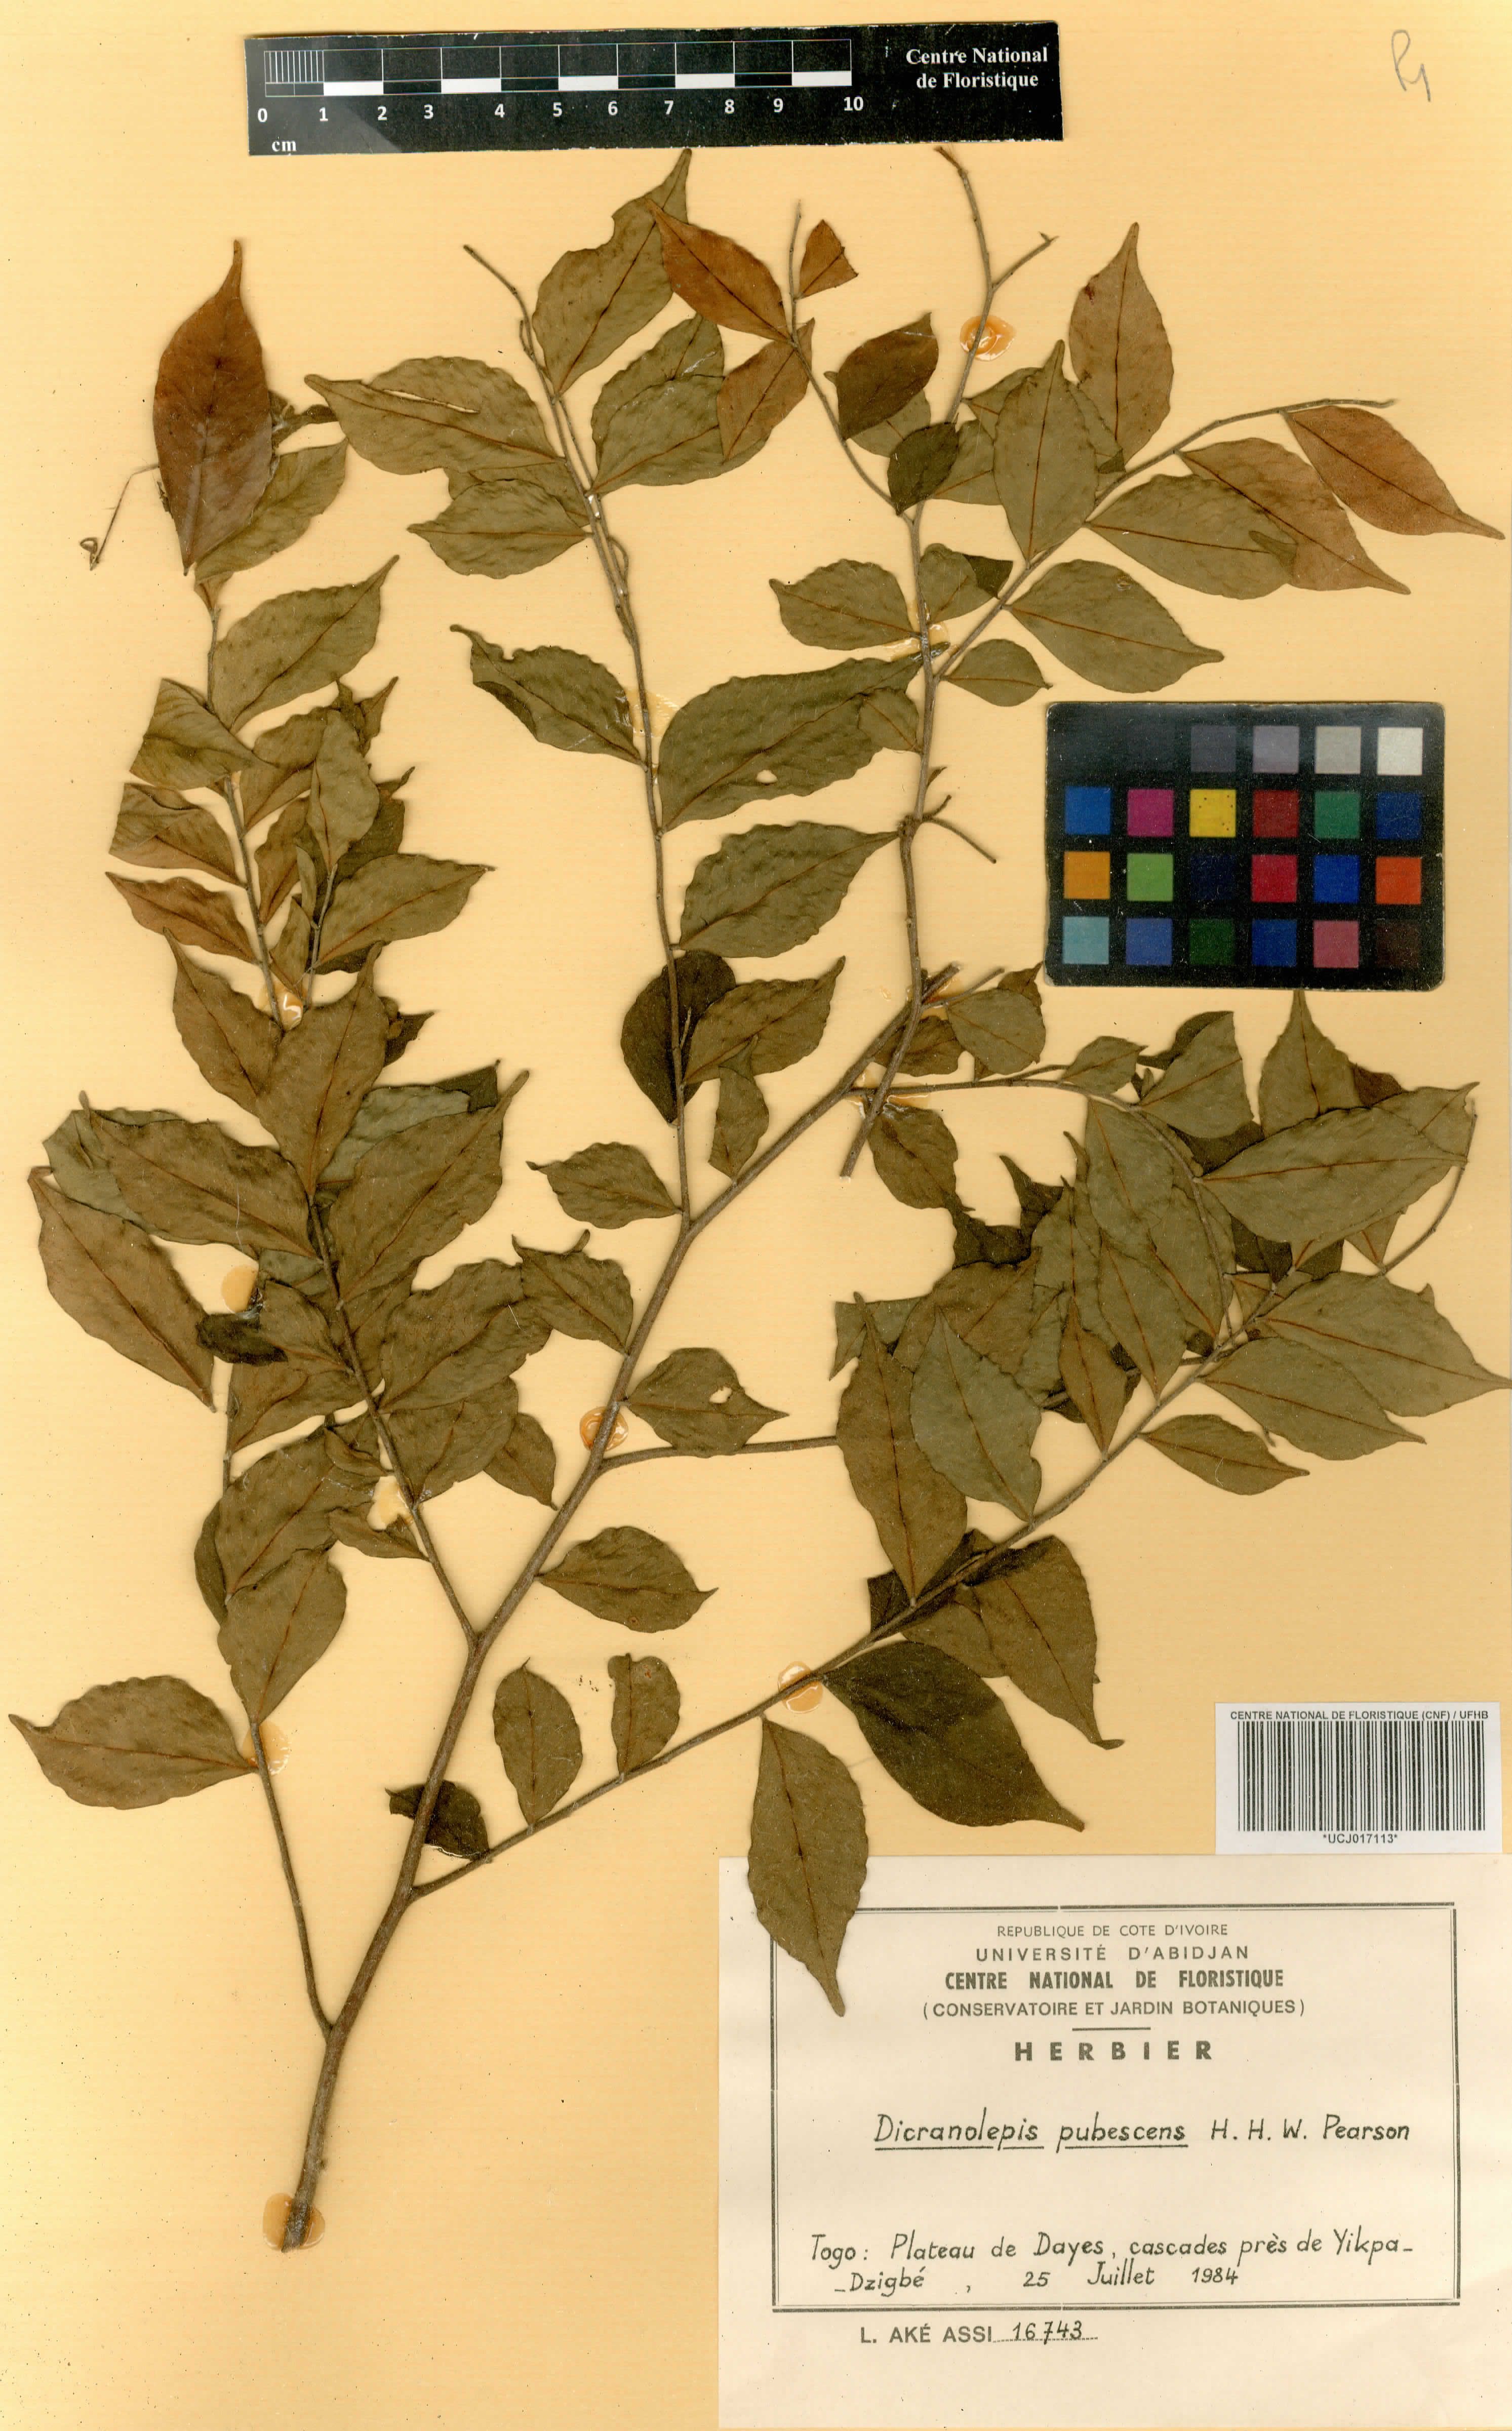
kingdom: Plantae
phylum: Tracheophyta
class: Magnoliopsida
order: Malvales
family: Thymelaeaceae
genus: Dicranolepis
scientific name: Dicranolepis pubescens
